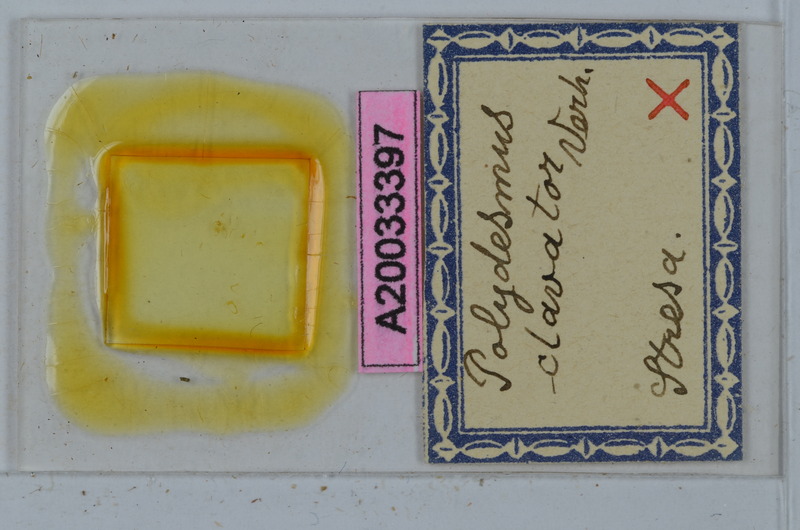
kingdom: Animalia
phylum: Arthropoda
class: Diplopoda
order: Polydesmida
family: Polydesmidae
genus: Polydesmus
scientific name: Polydesmus clavator
